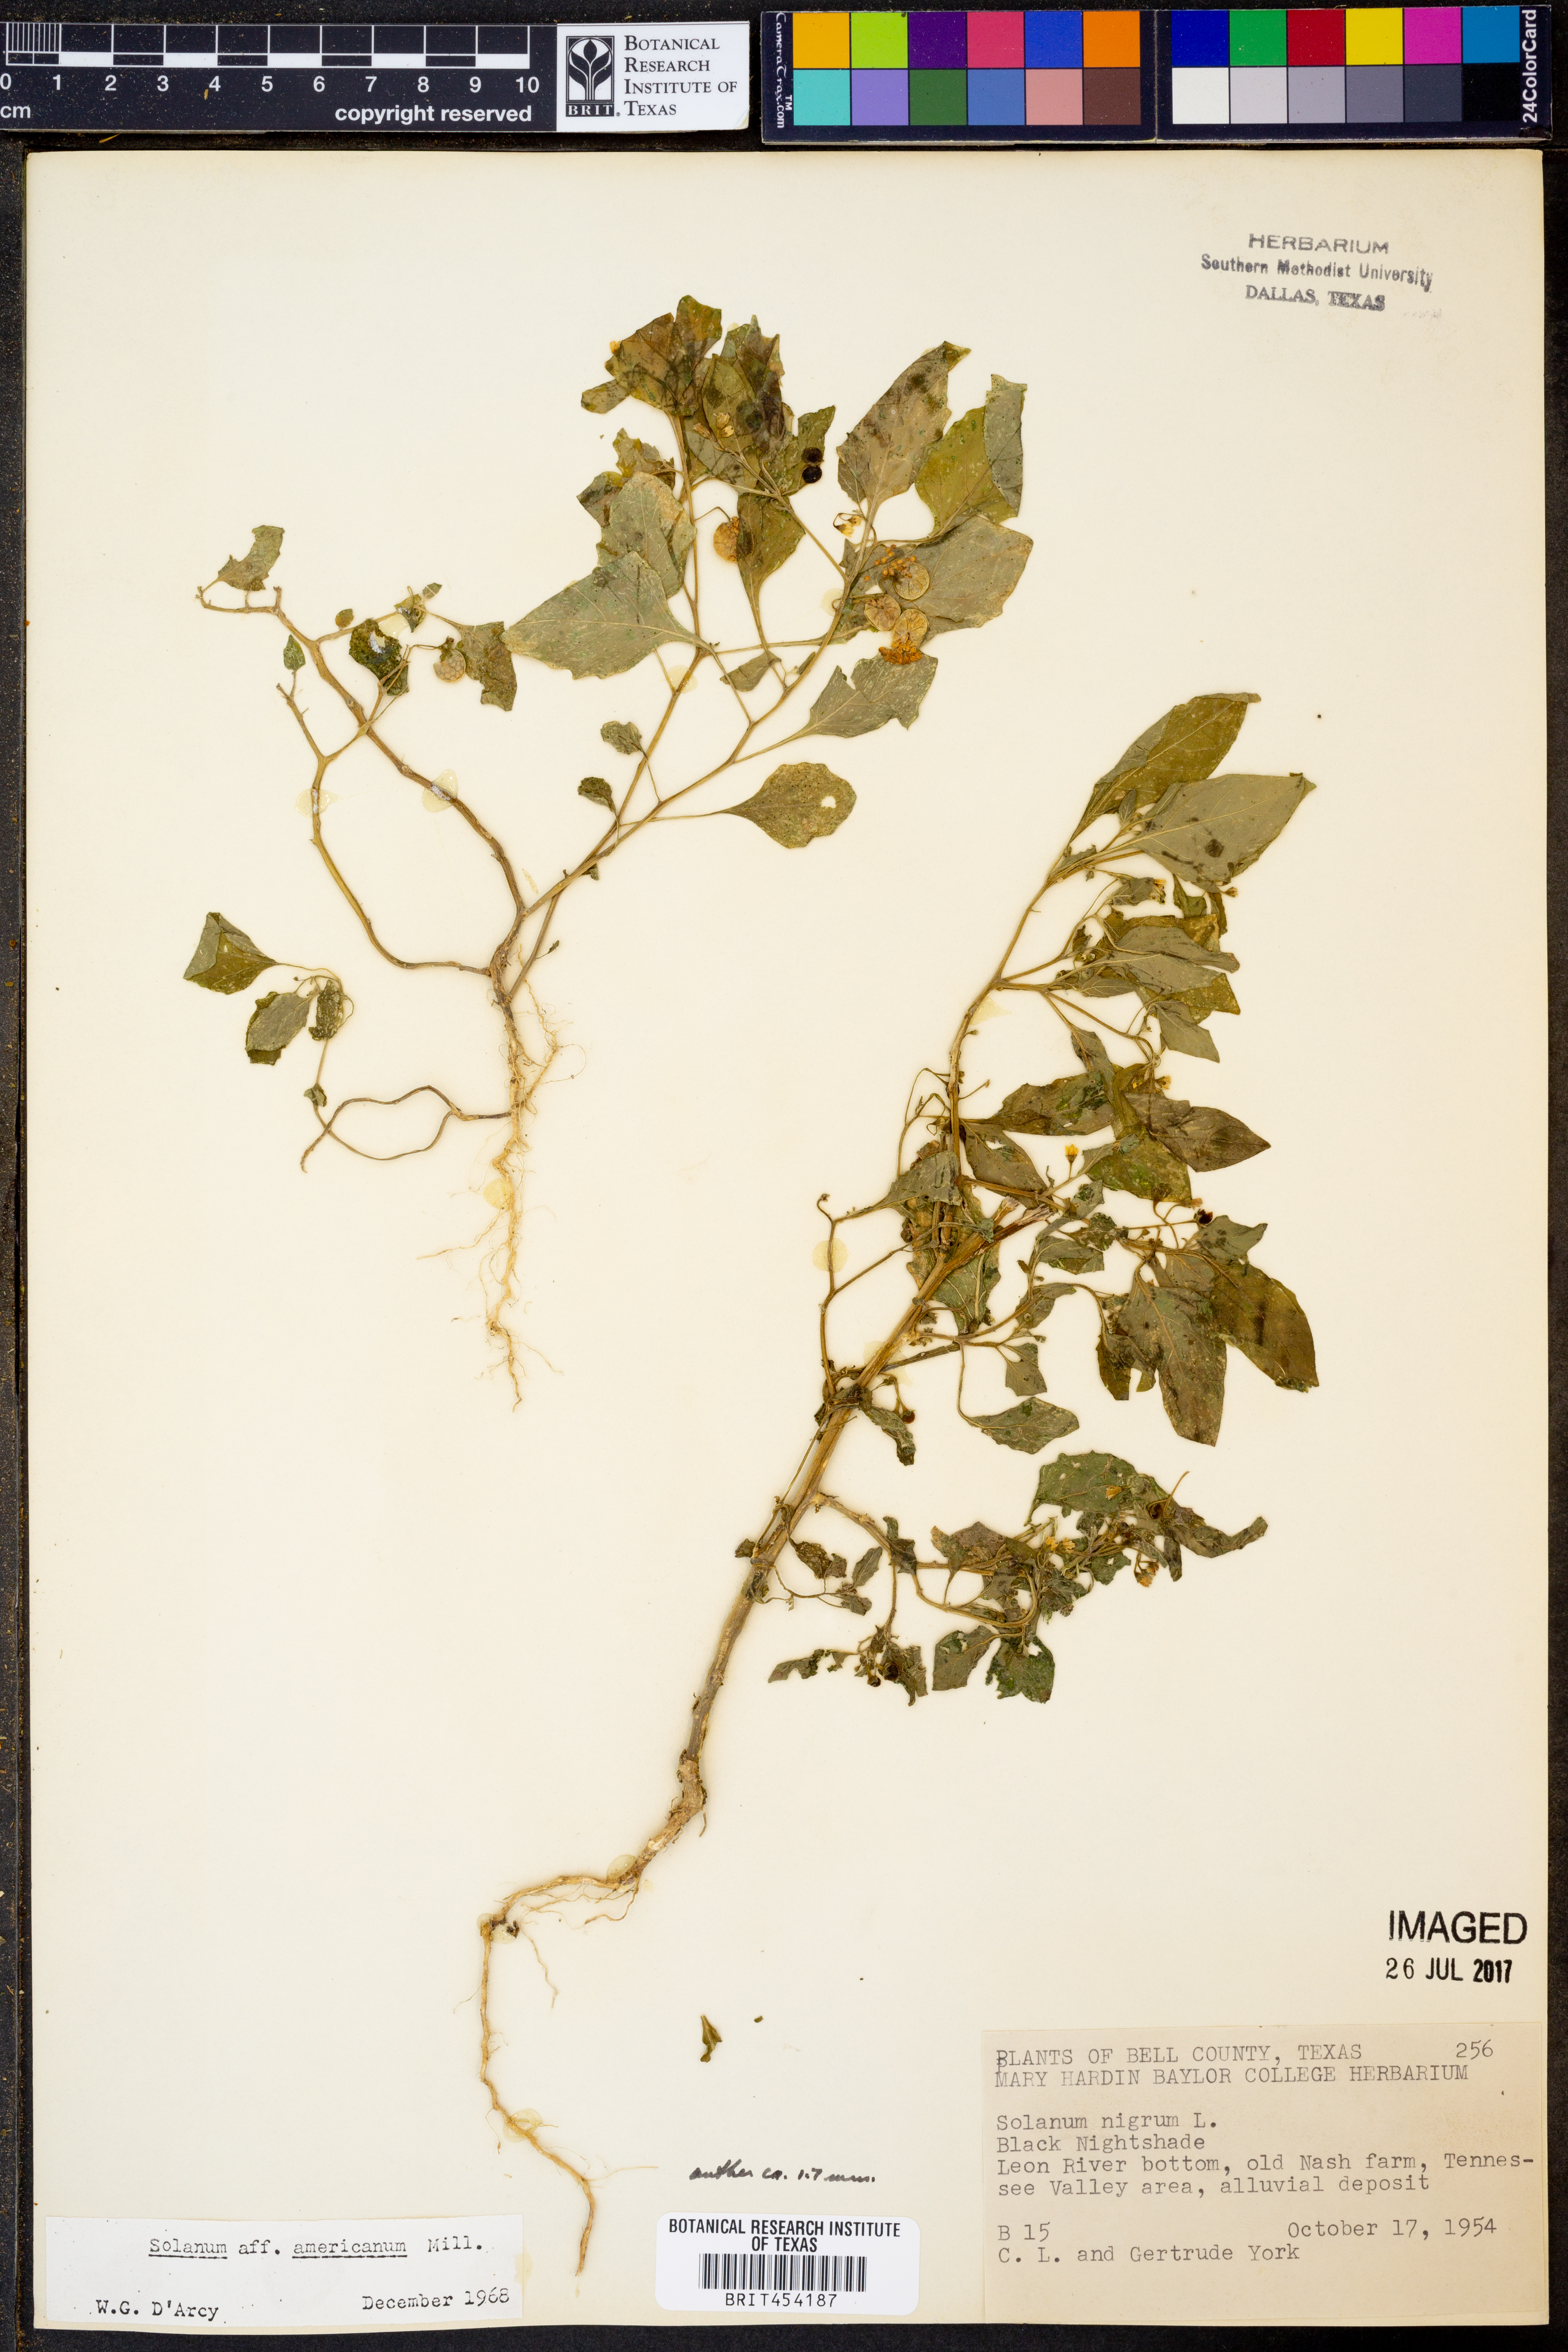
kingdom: Plantae
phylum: Tracheophyta
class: Magnoliopsida
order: Solanales
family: Solanaceae
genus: Solanum
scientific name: Solanum nigrum
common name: Black nightshade
